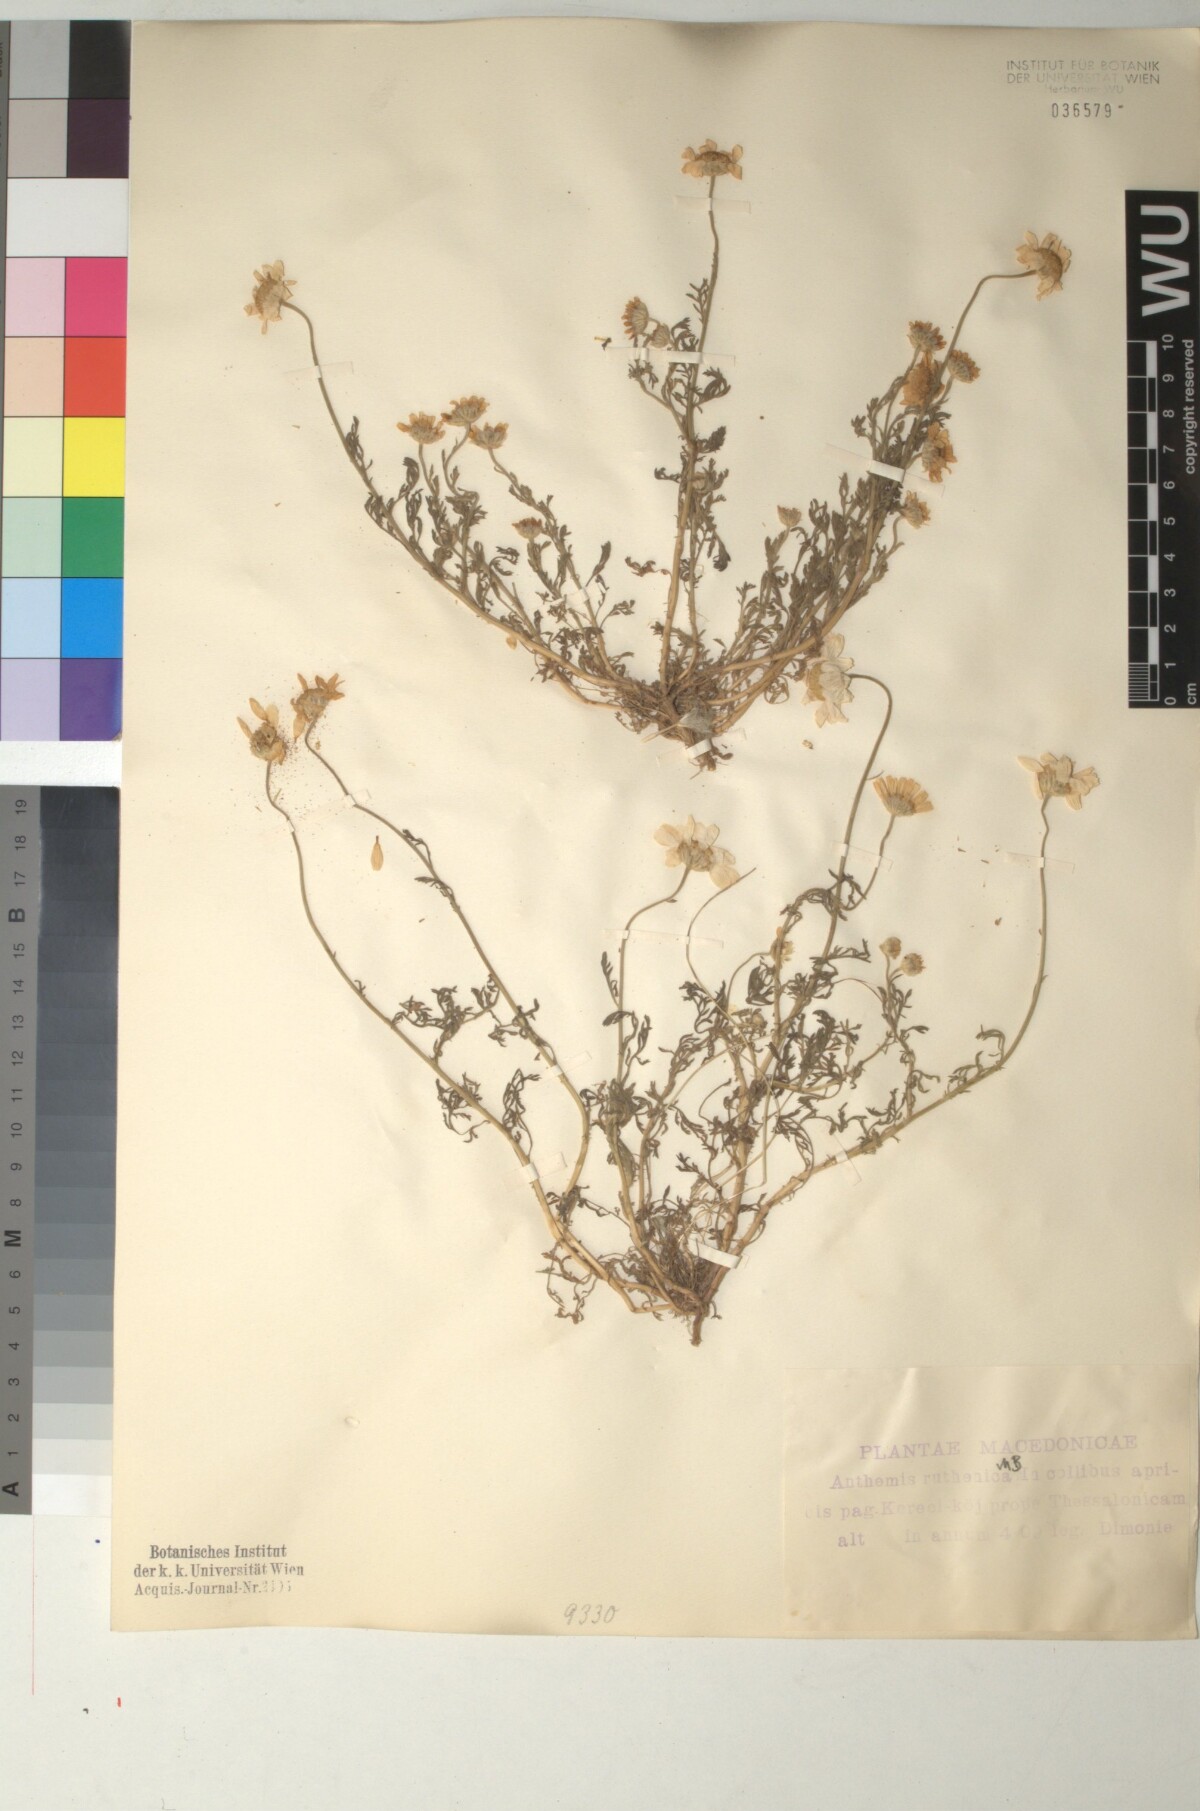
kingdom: Plantae
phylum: Tracheophyta
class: Magnoliopsida
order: Asterales
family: Asteraceae
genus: Anthemis
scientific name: Anthemis ruthenica
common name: Eastern chamomile
